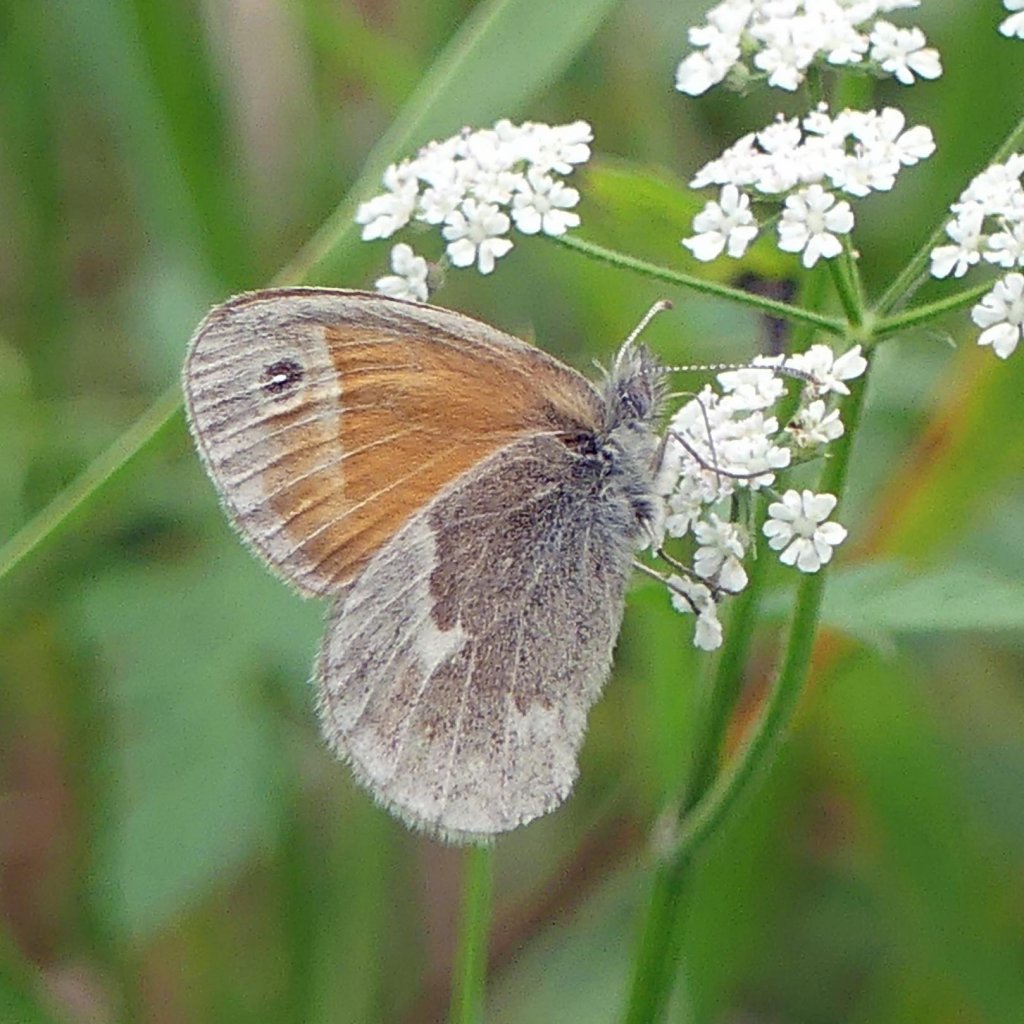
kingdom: Animalia
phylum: Arthropoda
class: Insecta
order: Lepidoptera
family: Nymphalidae
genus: Coenonympha
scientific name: Coenonympha tullia
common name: Large Heath
